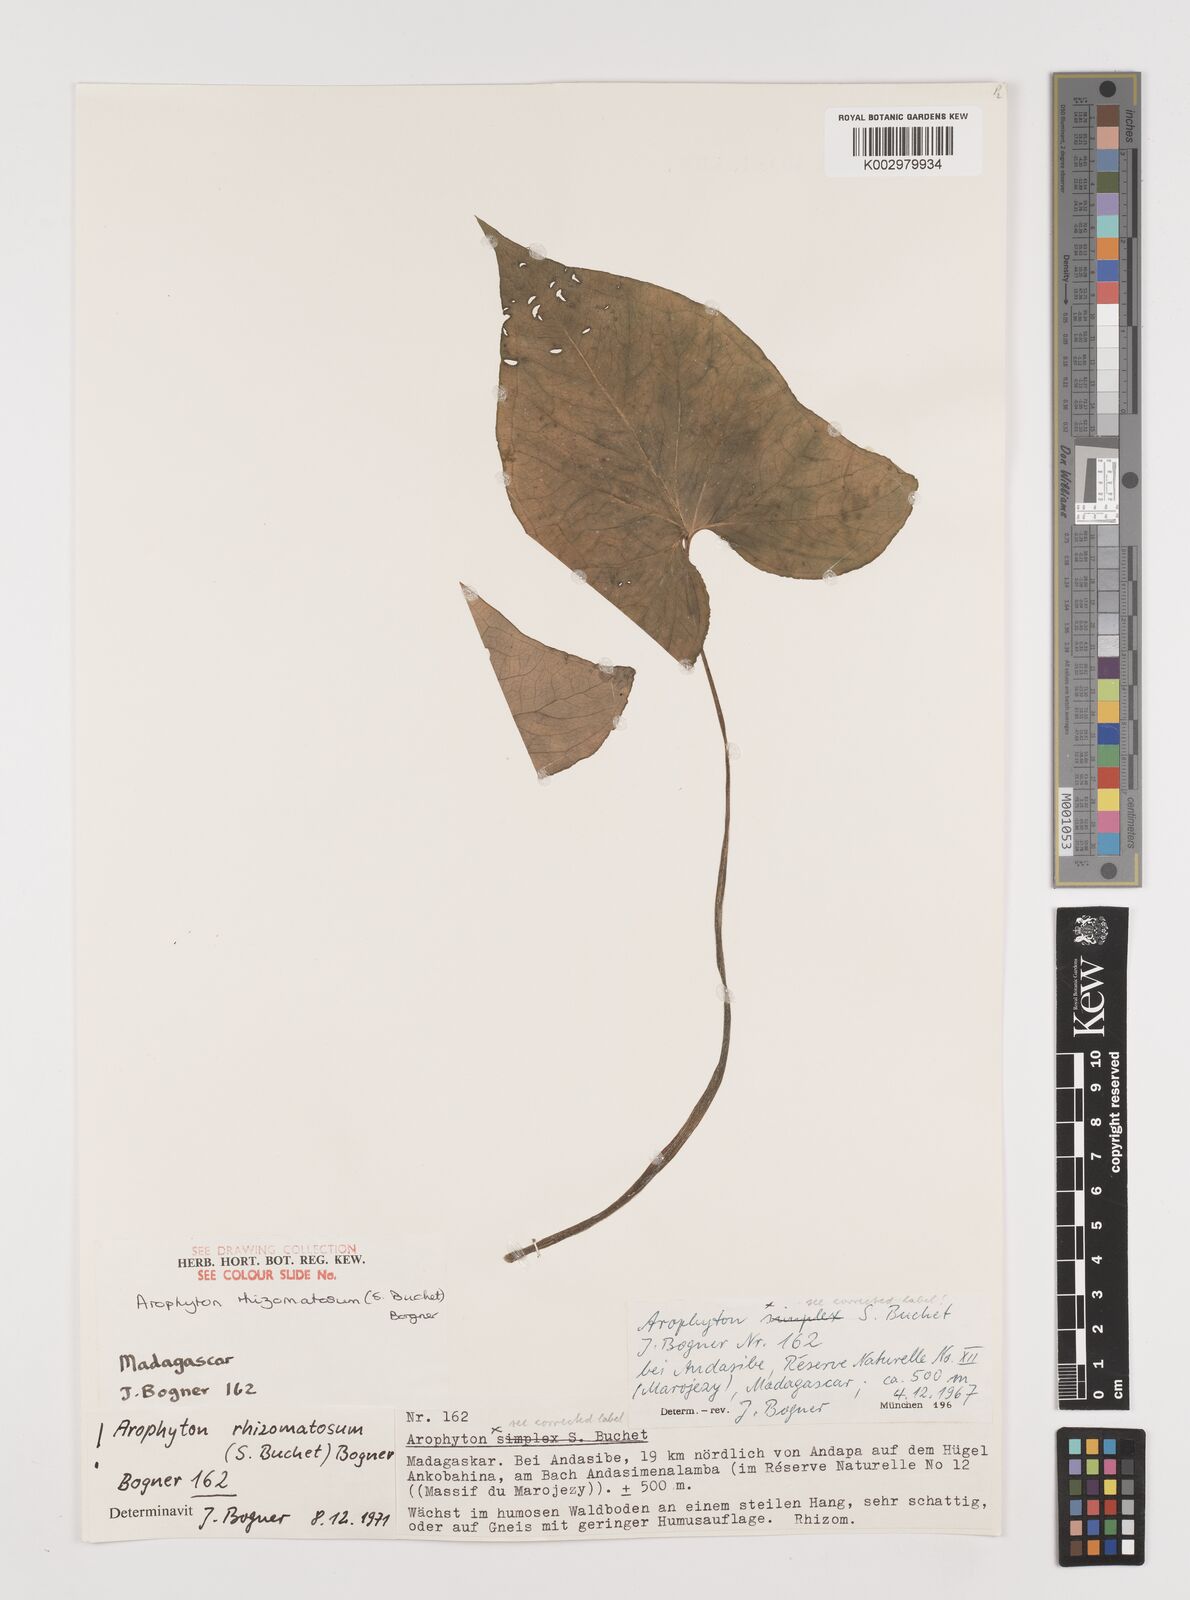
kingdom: Plantae
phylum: Tracheophyta
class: Liliopsida
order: Alismatales
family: Araceae
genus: Arophyton
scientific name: Arophyton rhizomatosum
